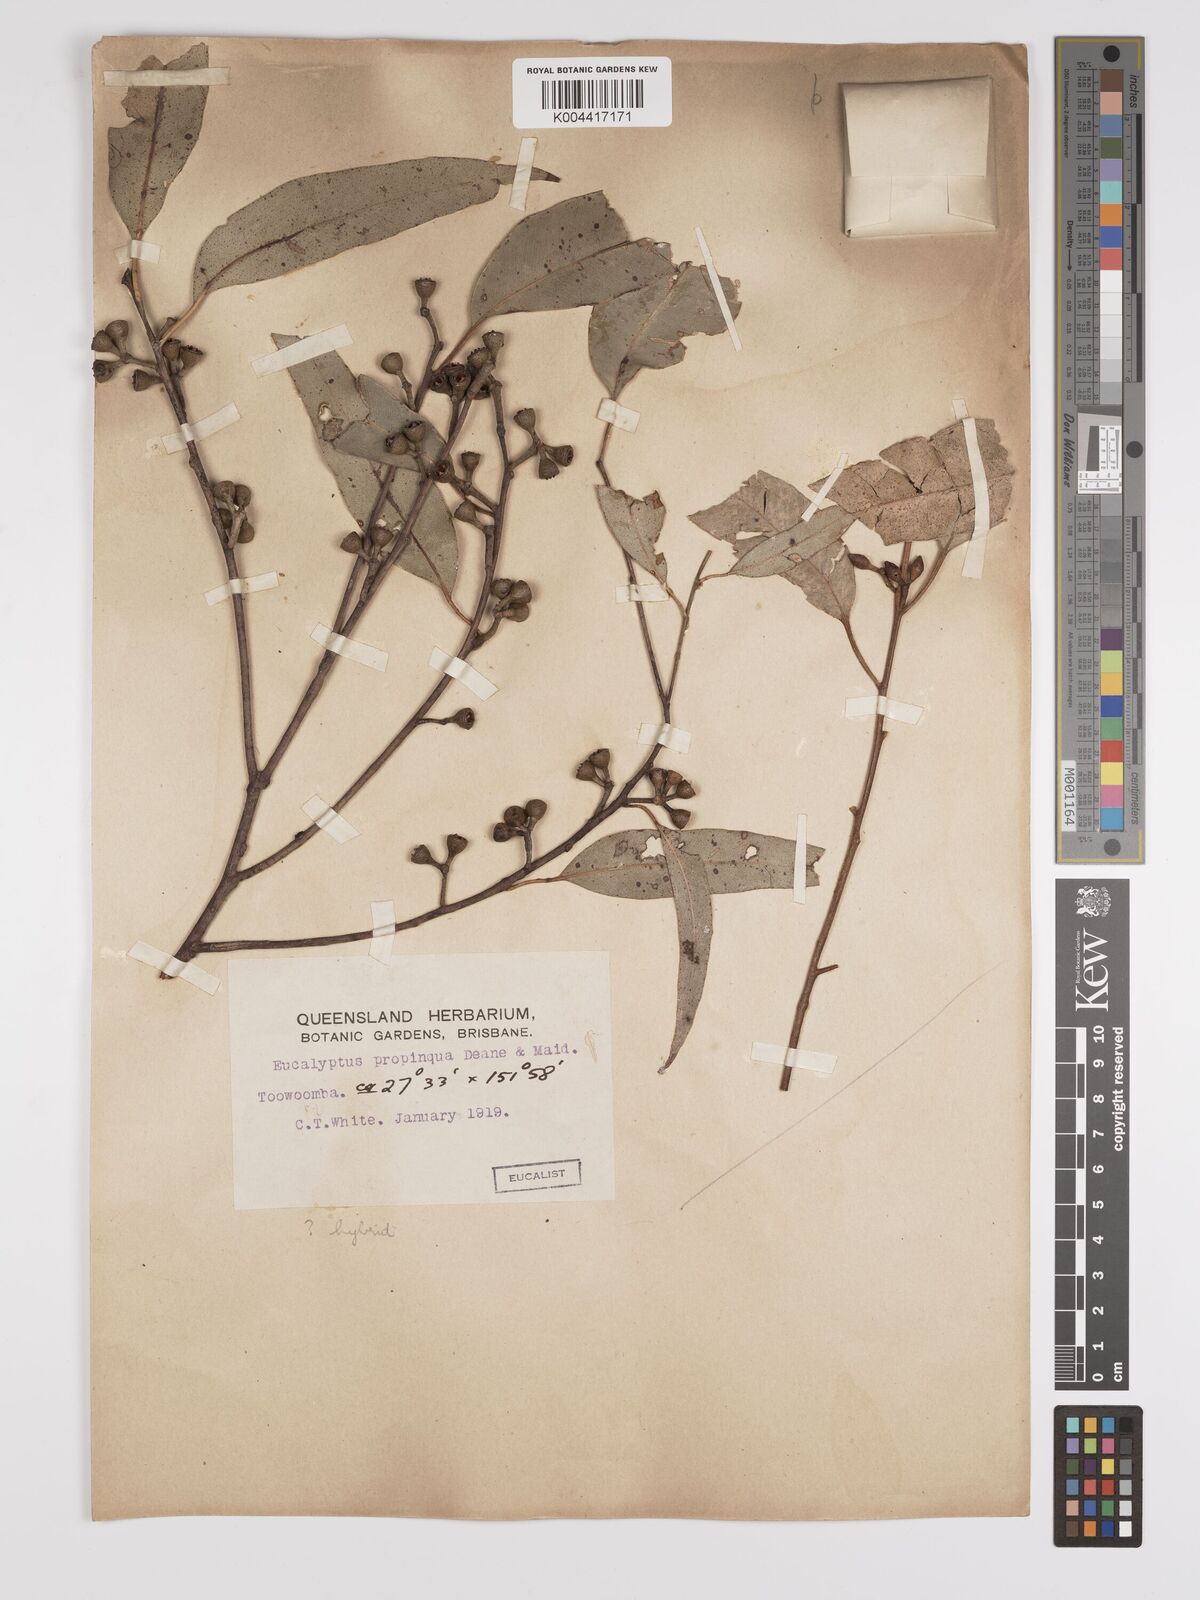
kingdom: Plantae
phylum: Tracheophyta
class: Magnoliopsida
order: Myrtales
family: Myrtaceae
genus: Eucalyptus
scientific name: Eucalyptus major
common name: Queensland grey gum
